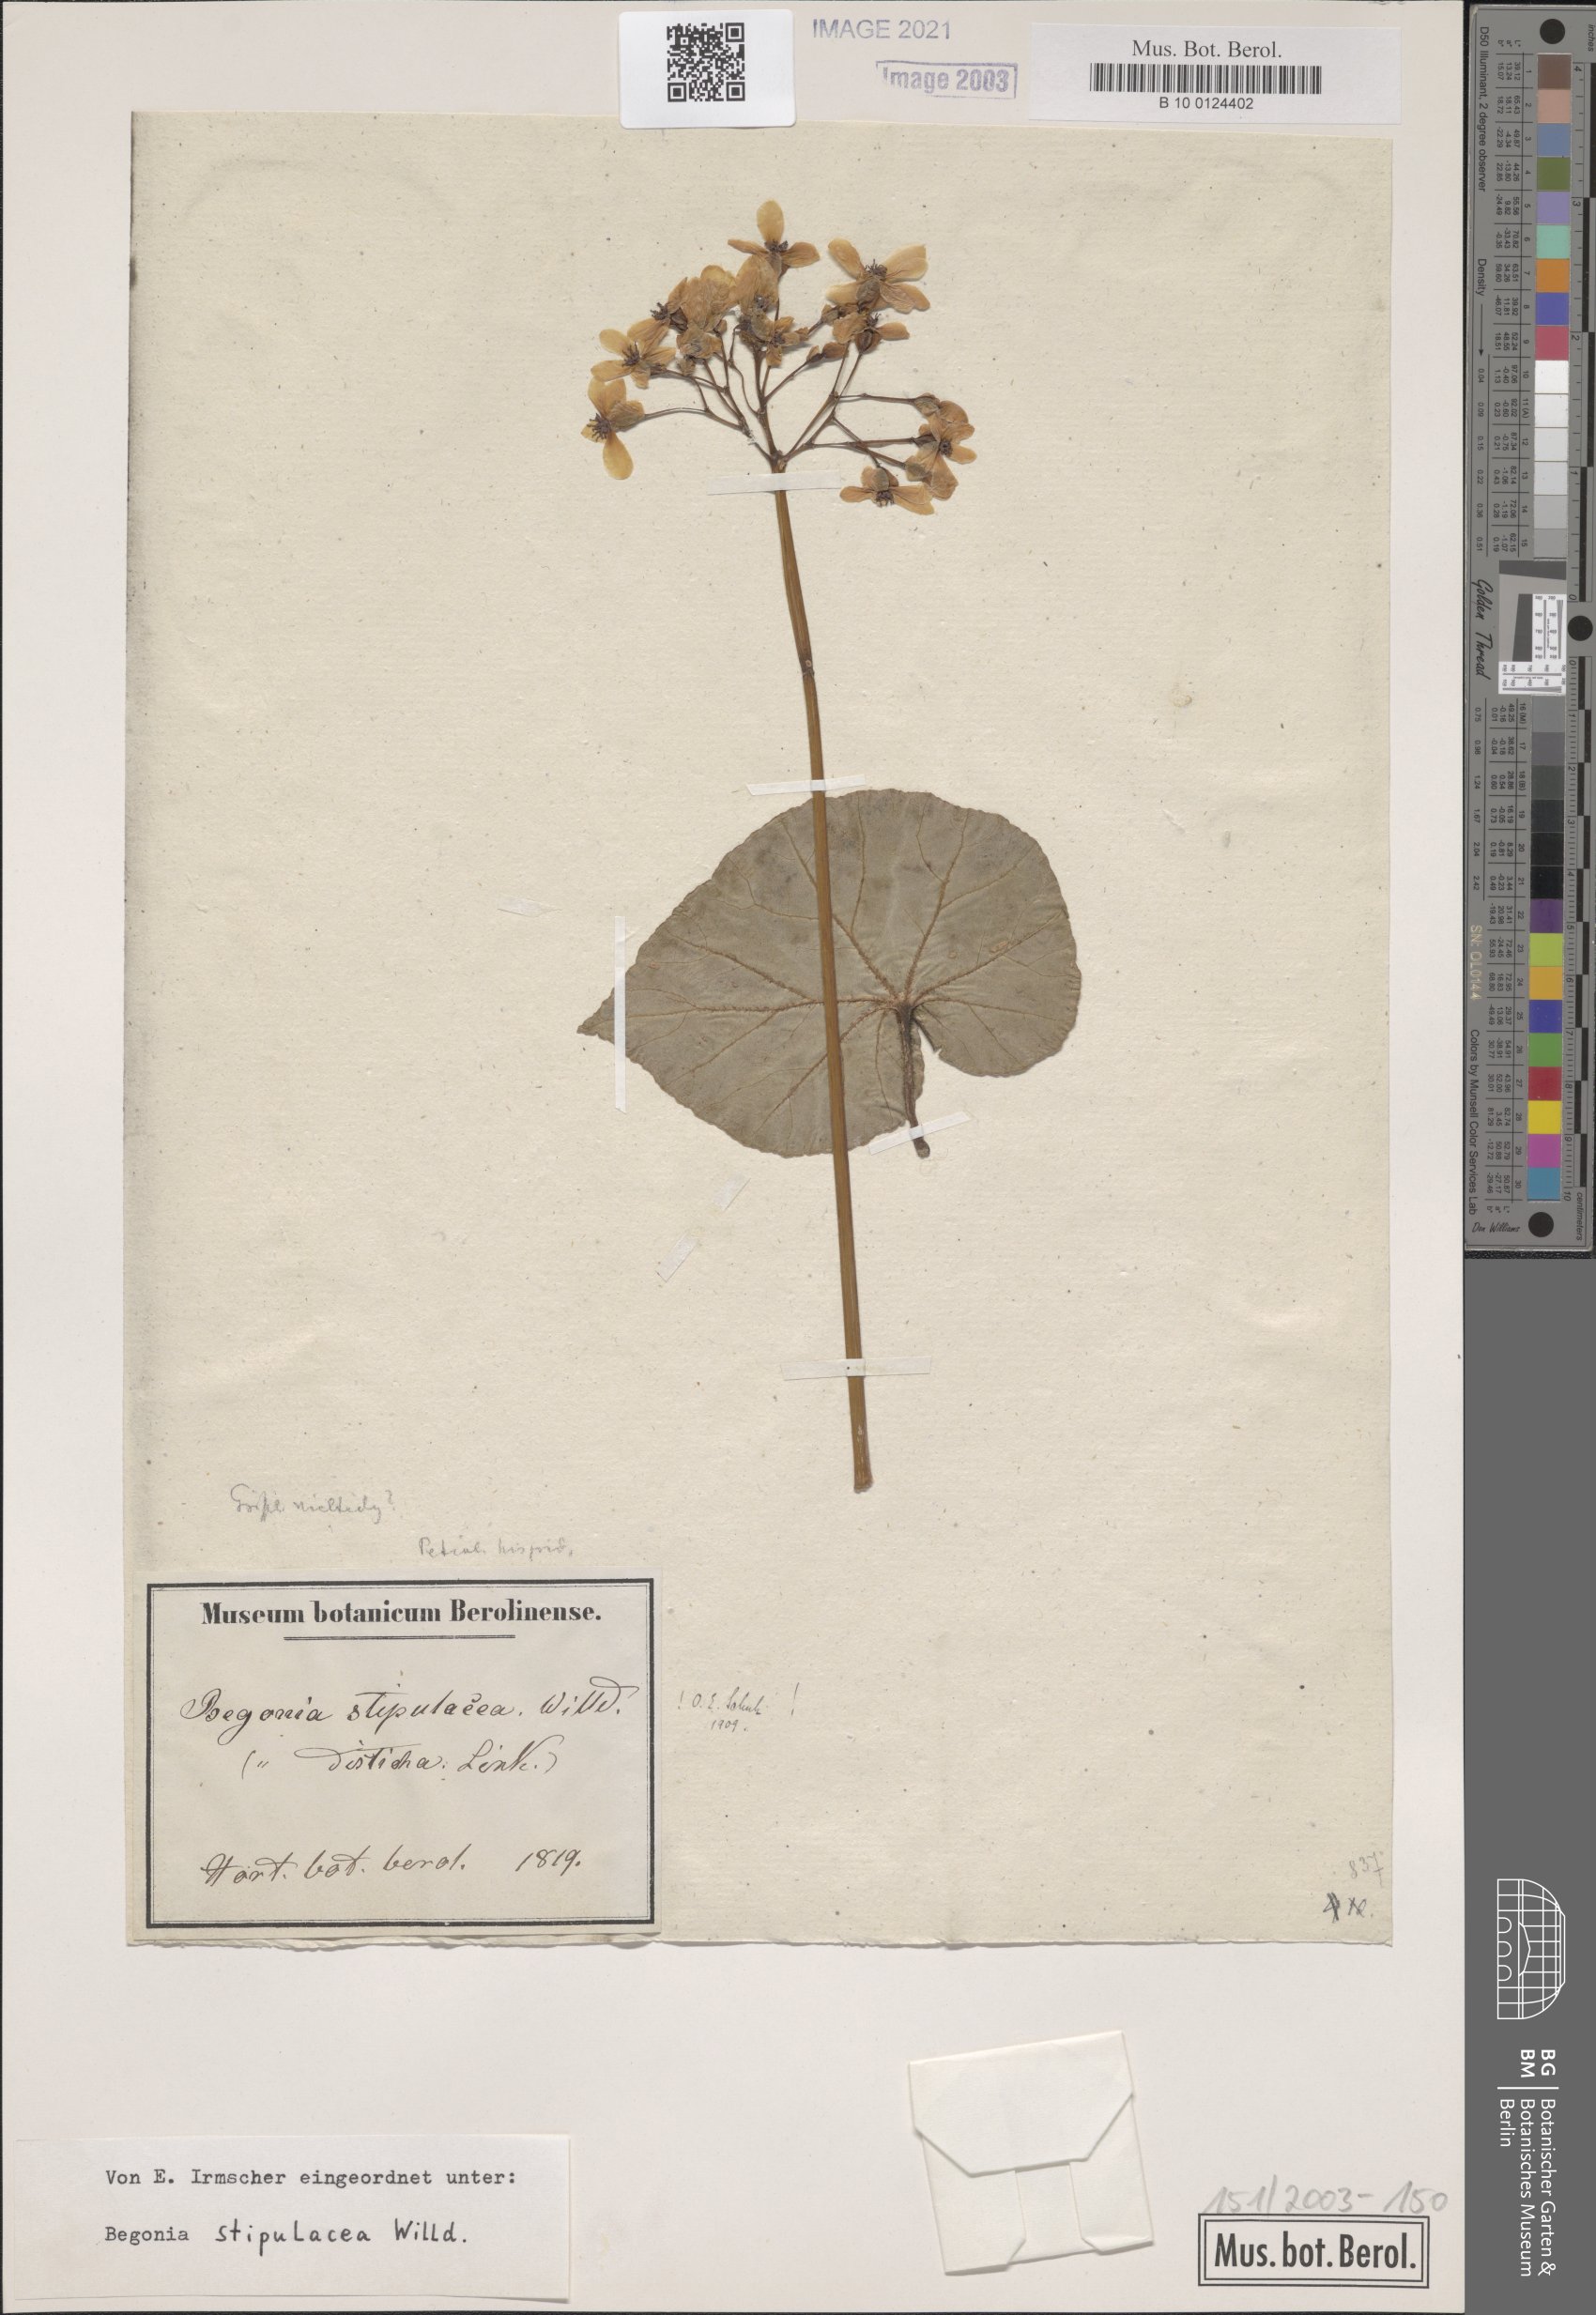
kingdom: Plantae
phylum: Tracheophyta
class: Magnoliopsida
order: Cucurbitales
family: Begoniaceae
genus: Begonia
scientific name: Begonia stipularis
